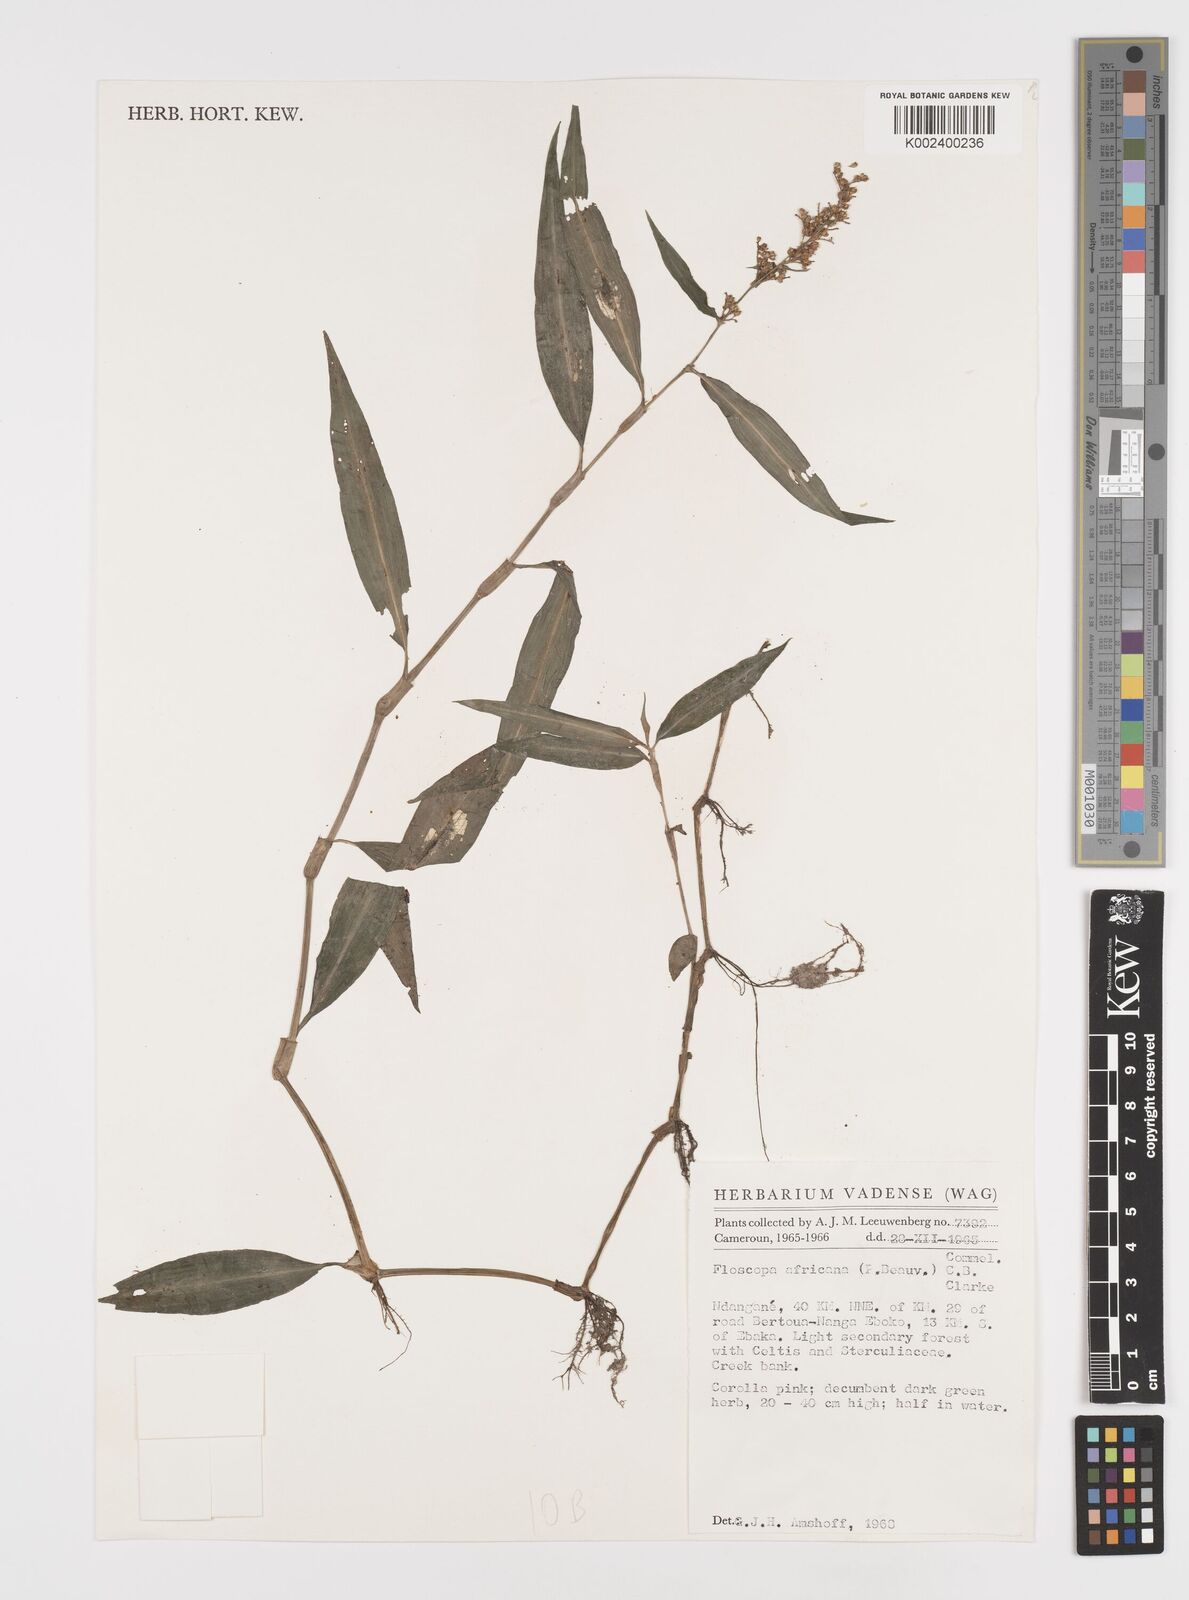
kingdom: Plantae
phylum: Tracheophyta
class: Liliopsida
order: Commelinales
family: Commelinaceae
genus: Floscopa
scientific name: Floscopa africana
